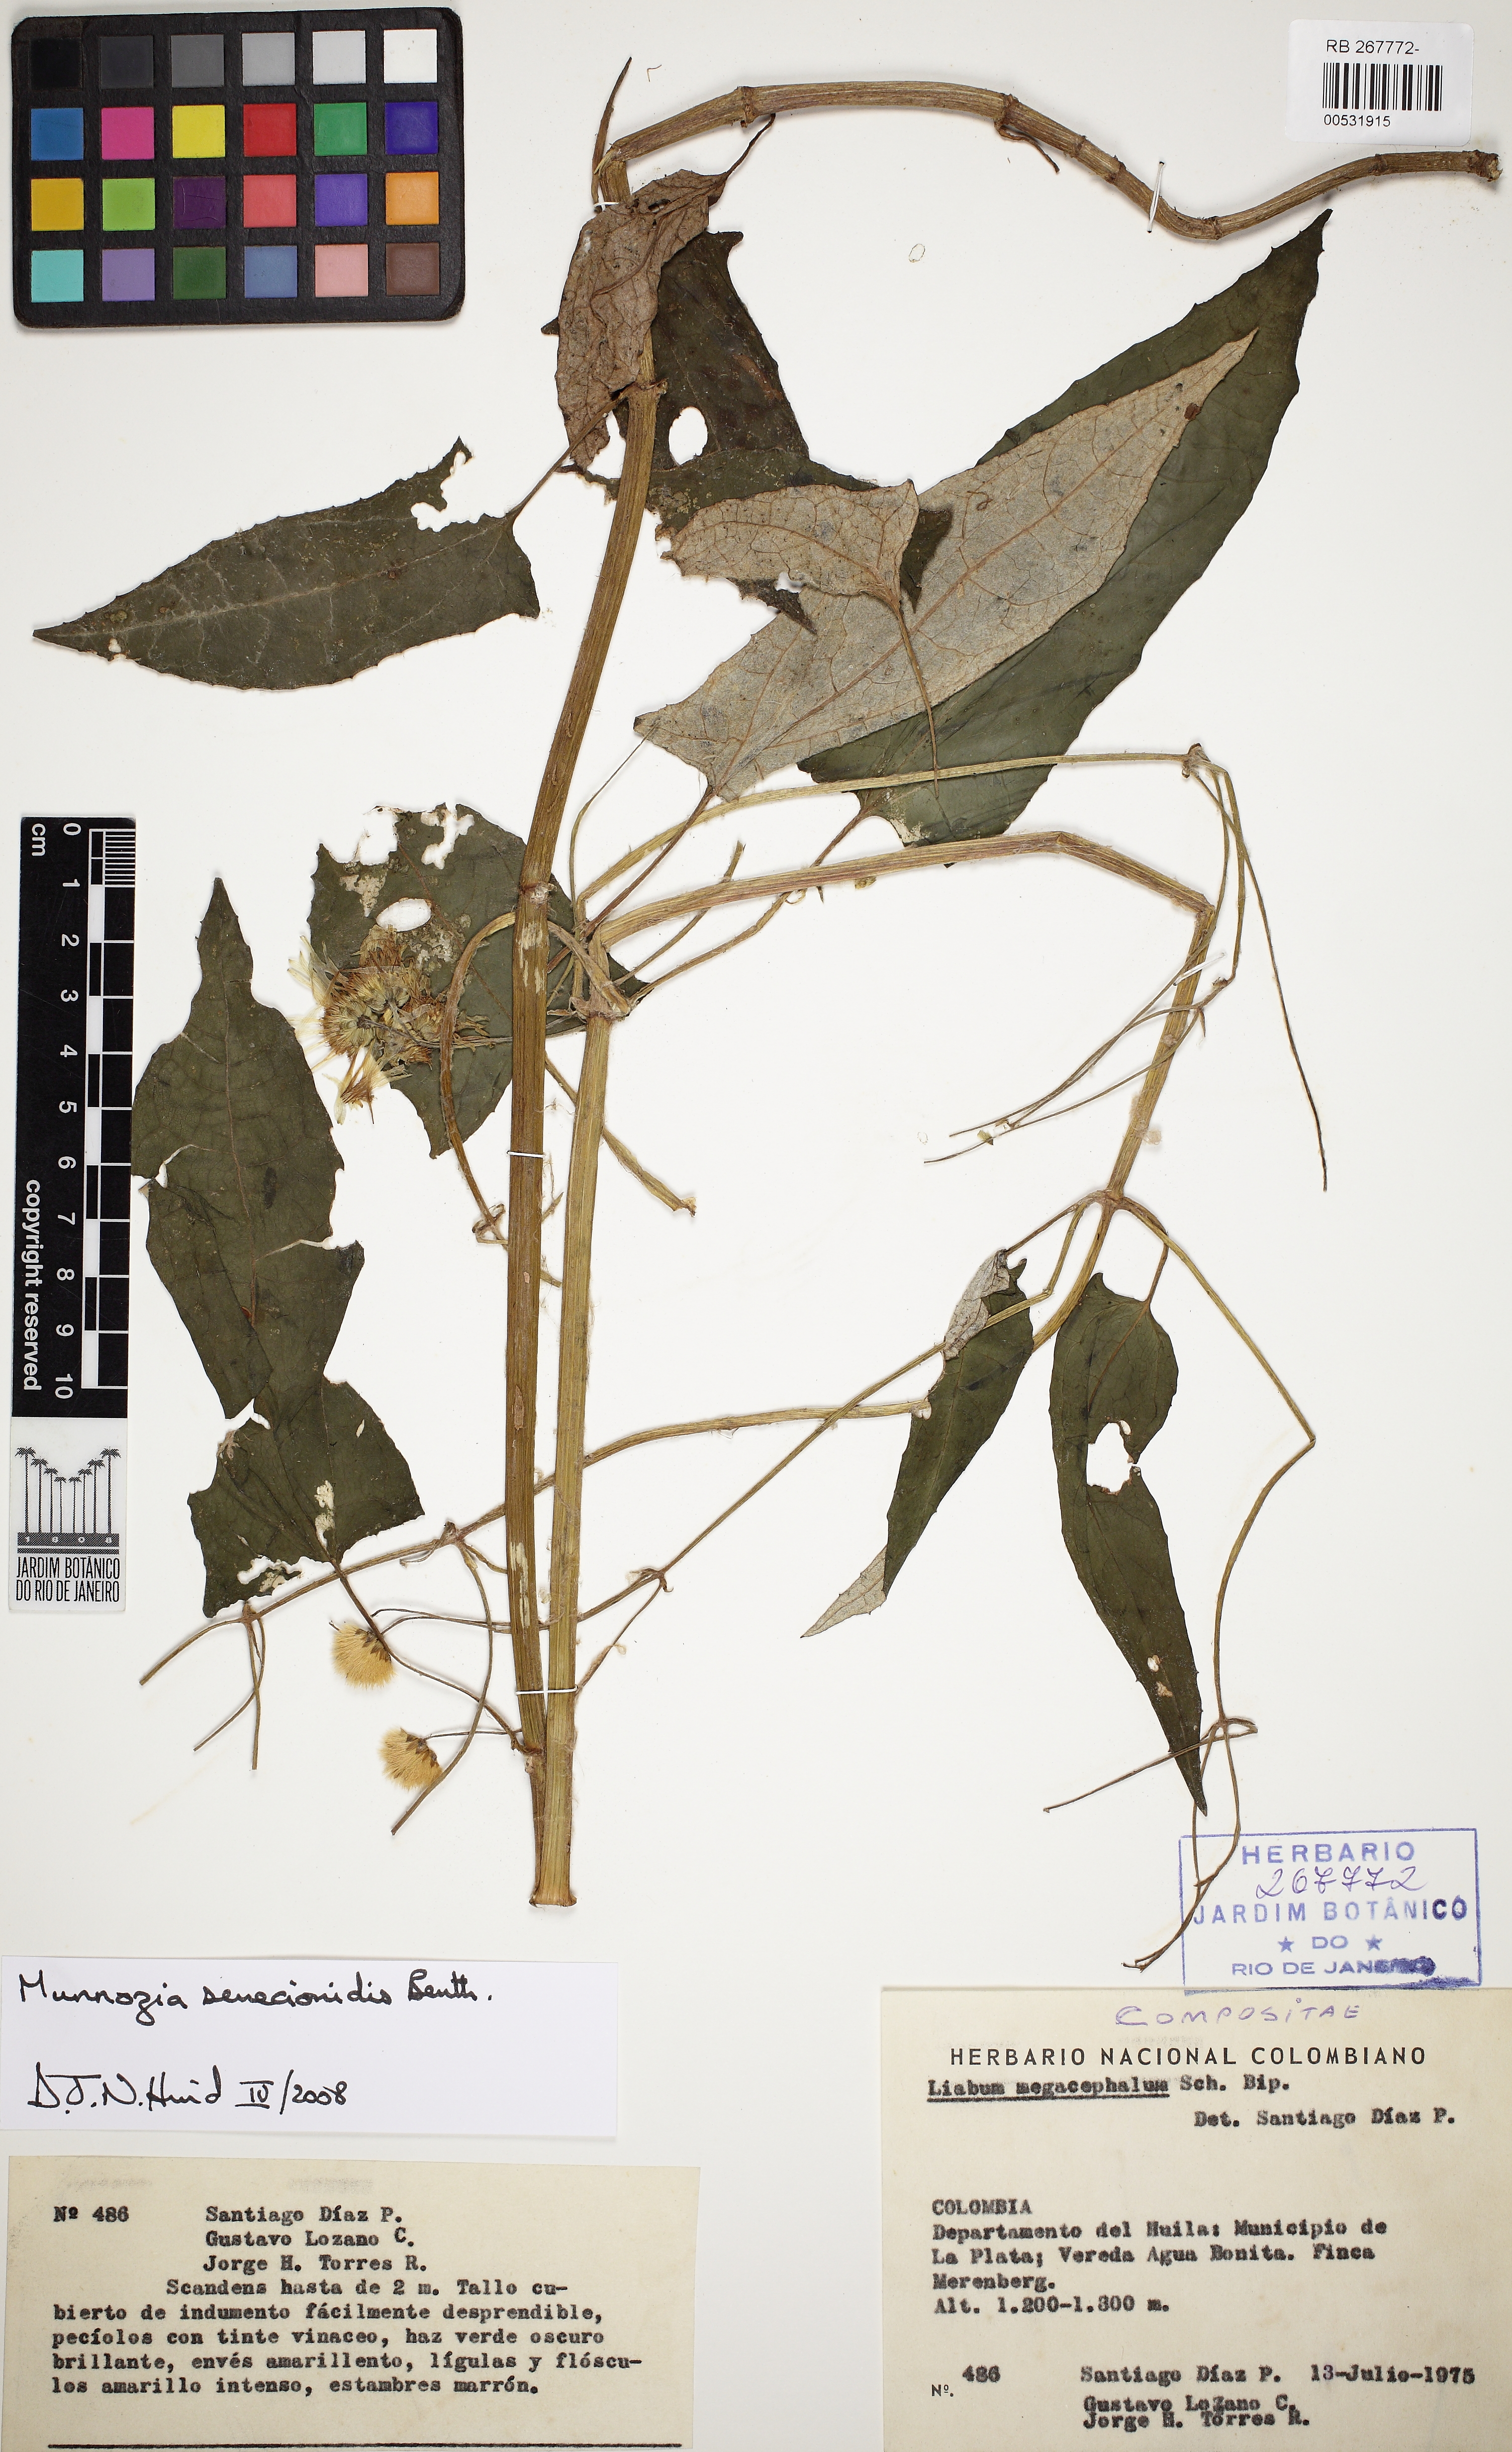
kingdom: Plantae
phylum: Tracheophyta
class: Magnoliopsida
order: Asterales
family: Asteraceae
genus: Munnozia
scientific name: Munnozia senecionidis
